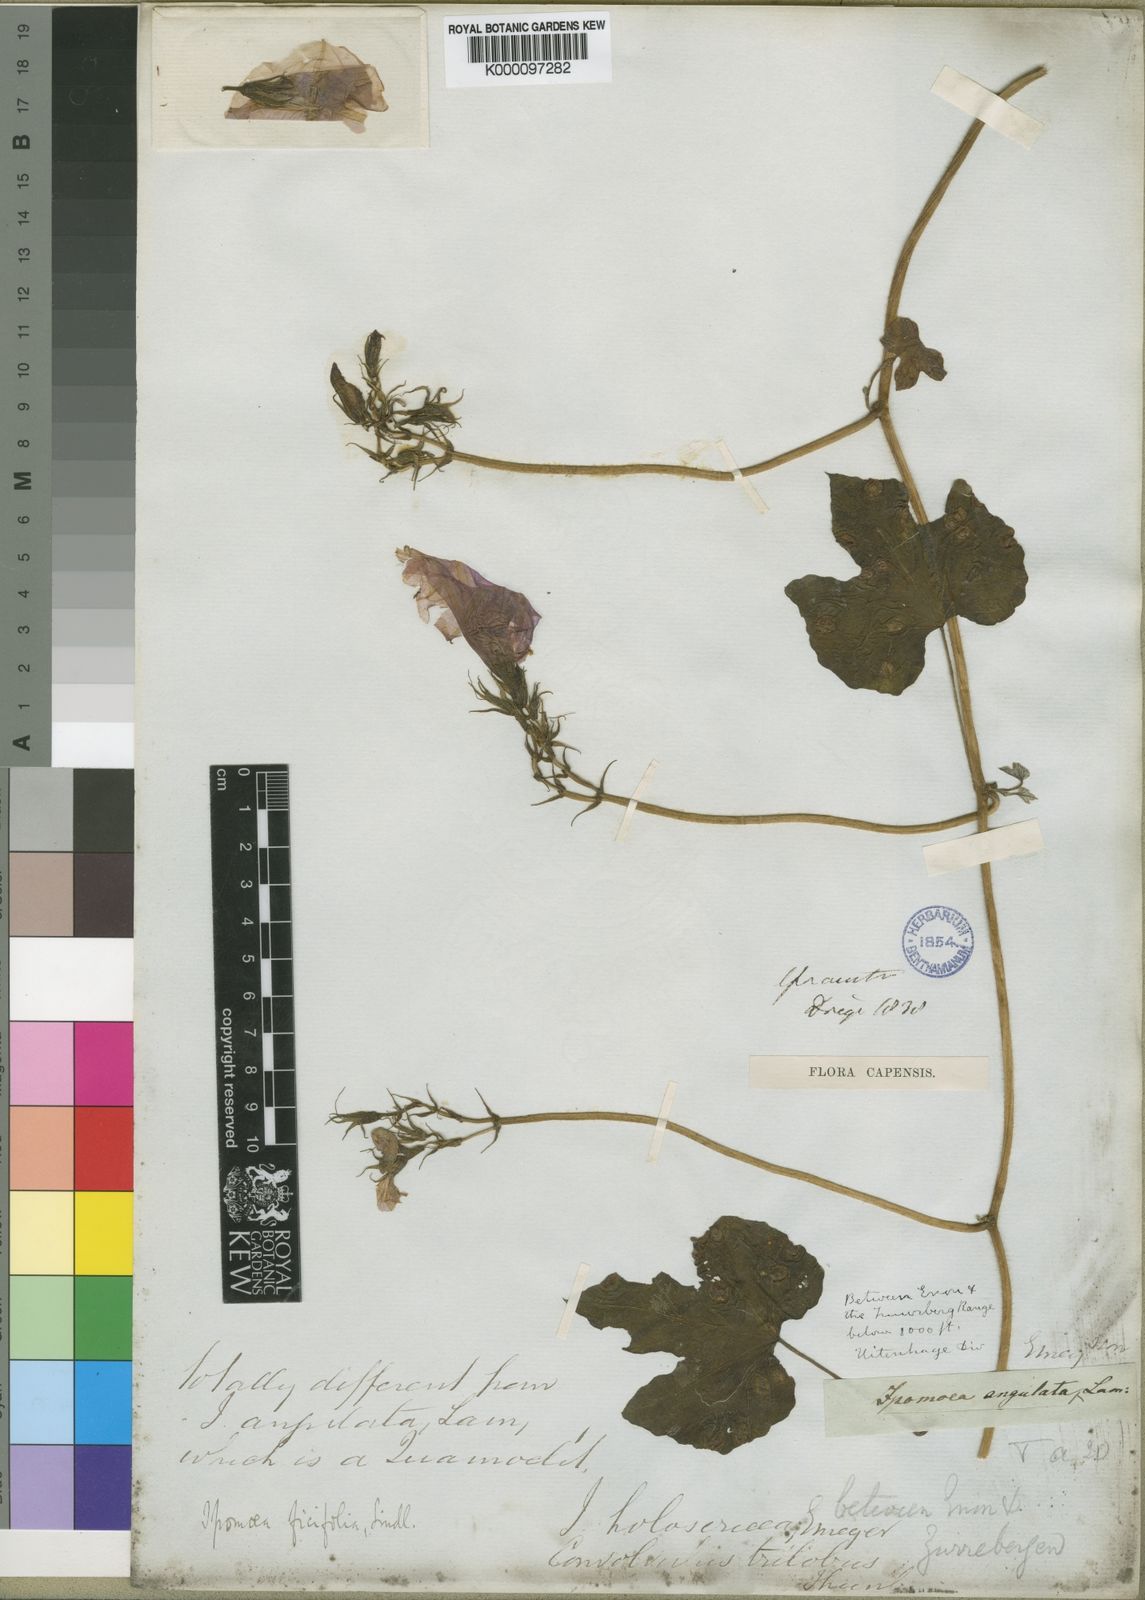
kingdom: Plantae
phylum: Tracheophyta
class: Magnoliopsida
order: Solanales
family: Convolvulaceae
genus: Ipomoea
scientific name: Ipomoea ficifolia
